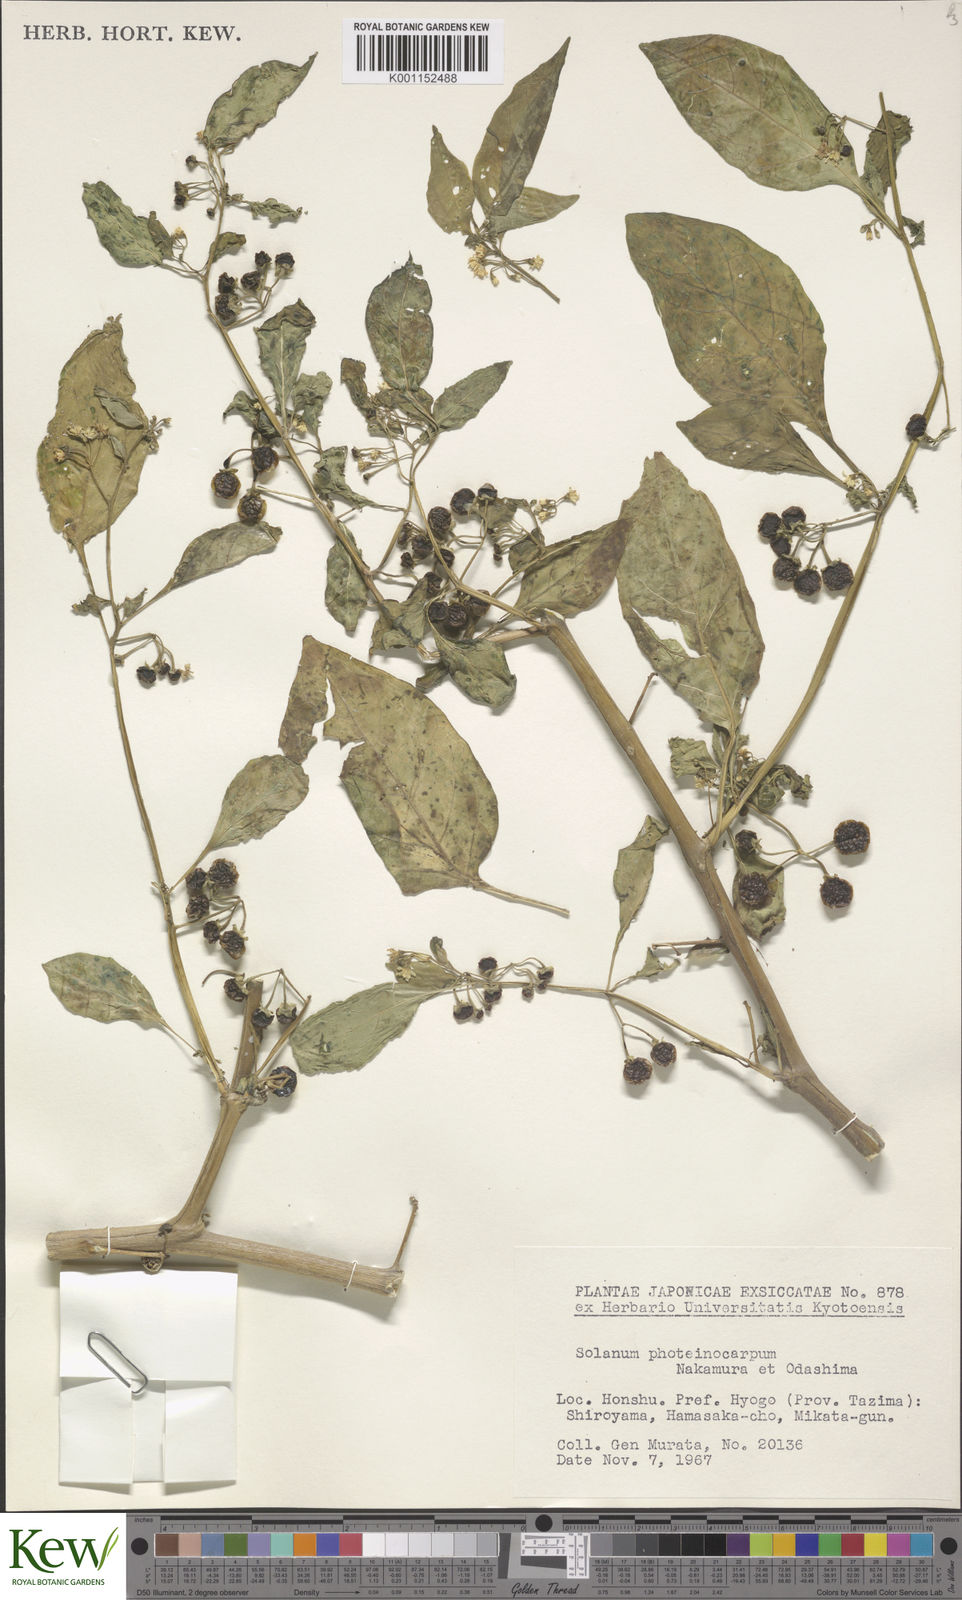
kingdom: Plantae
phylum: Tracheophyta
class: Magnoliopsida
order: Solanales
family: Solanaceae
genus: Solanum
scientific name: Solanum americanum
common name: American black nightshade
